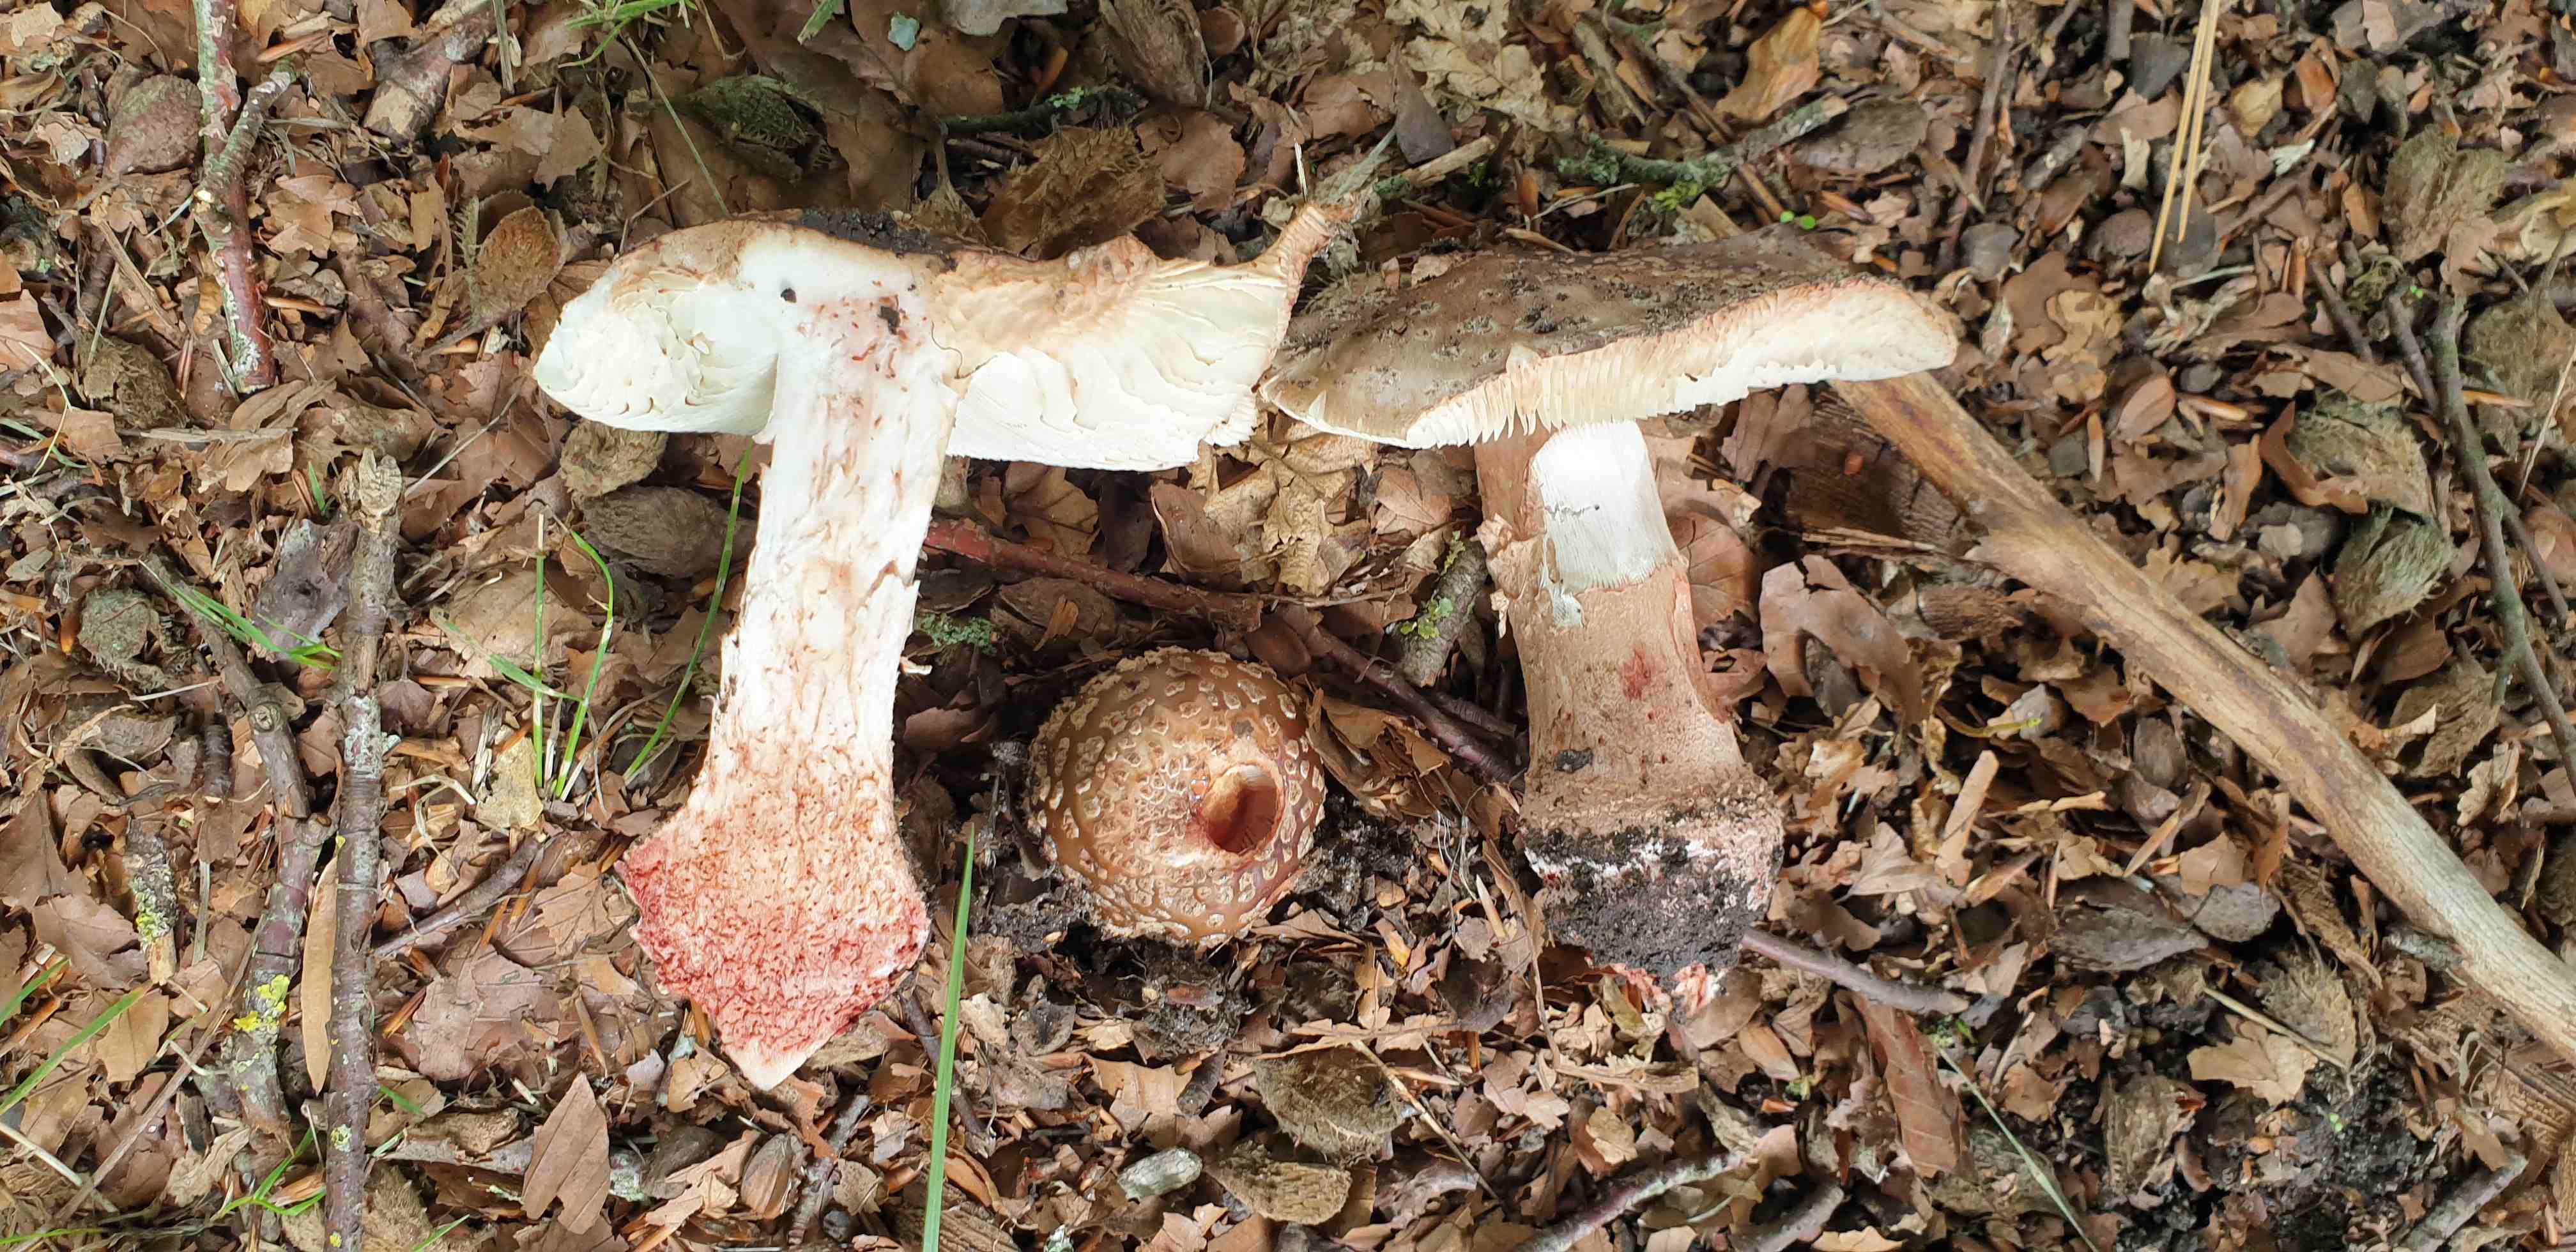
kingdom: Fungi
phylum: Basidiomycota
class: Agaricomycetes
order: Agaricales
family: Amanitaceae
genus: Amanita
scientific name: Amanita rubescens
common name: rødmende fluesvamp
